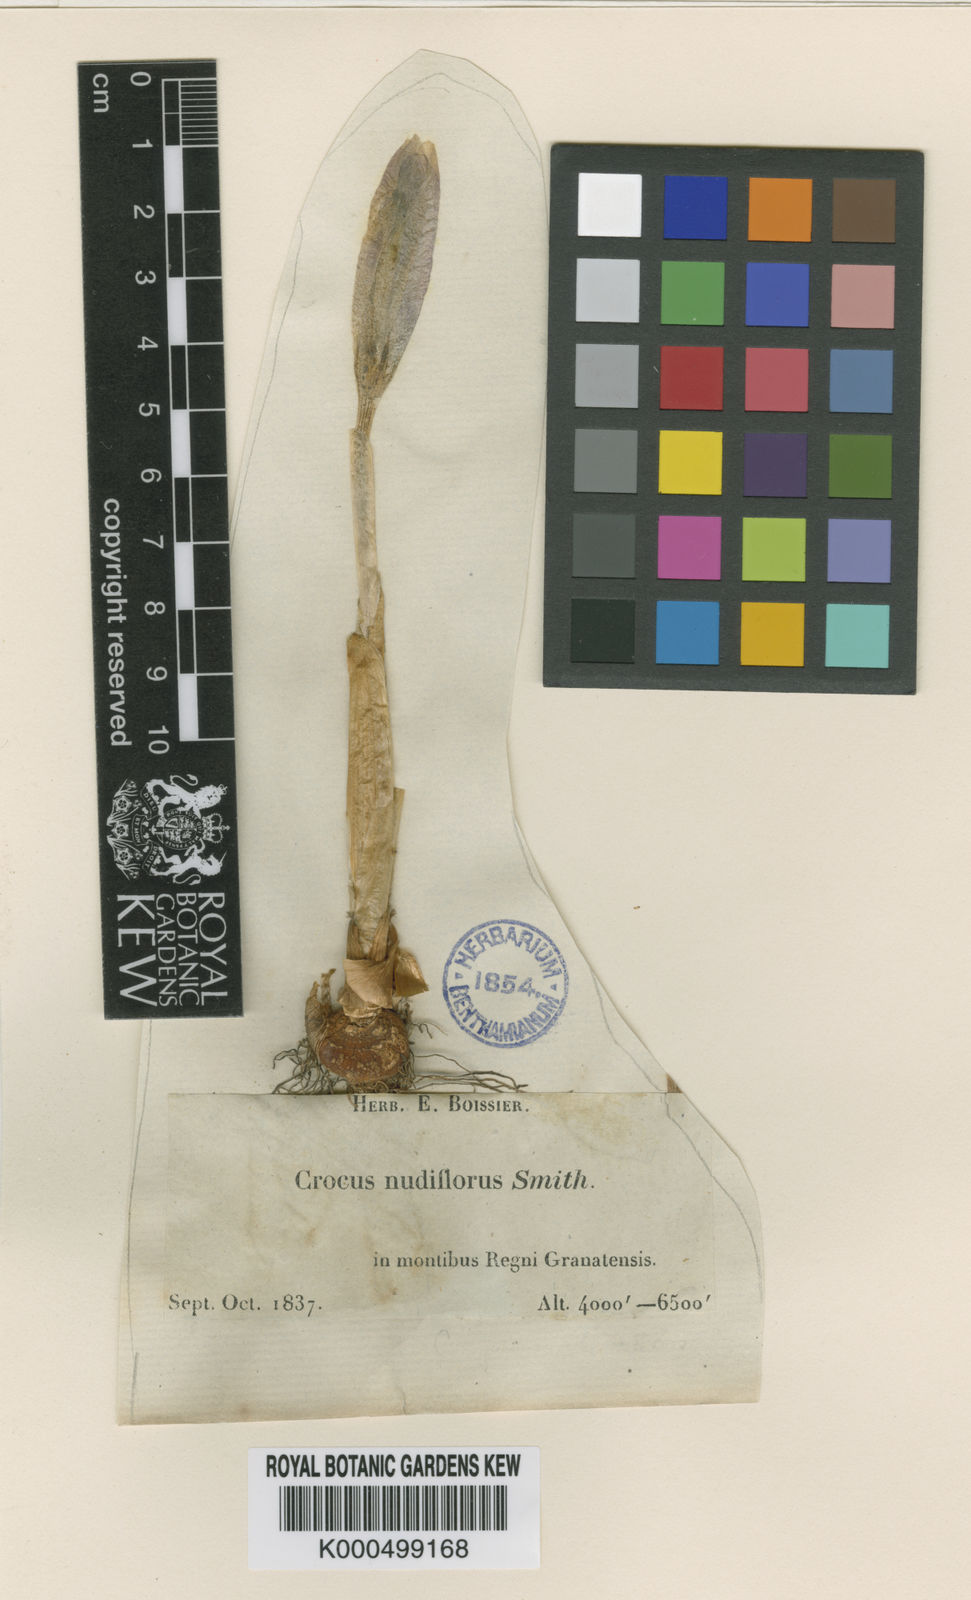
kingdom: Plantae
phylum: Tracheophyta
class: Liliopsida
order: Asparagales
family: Iridaceae
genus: Crocus
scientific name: Crocus salzmannii
